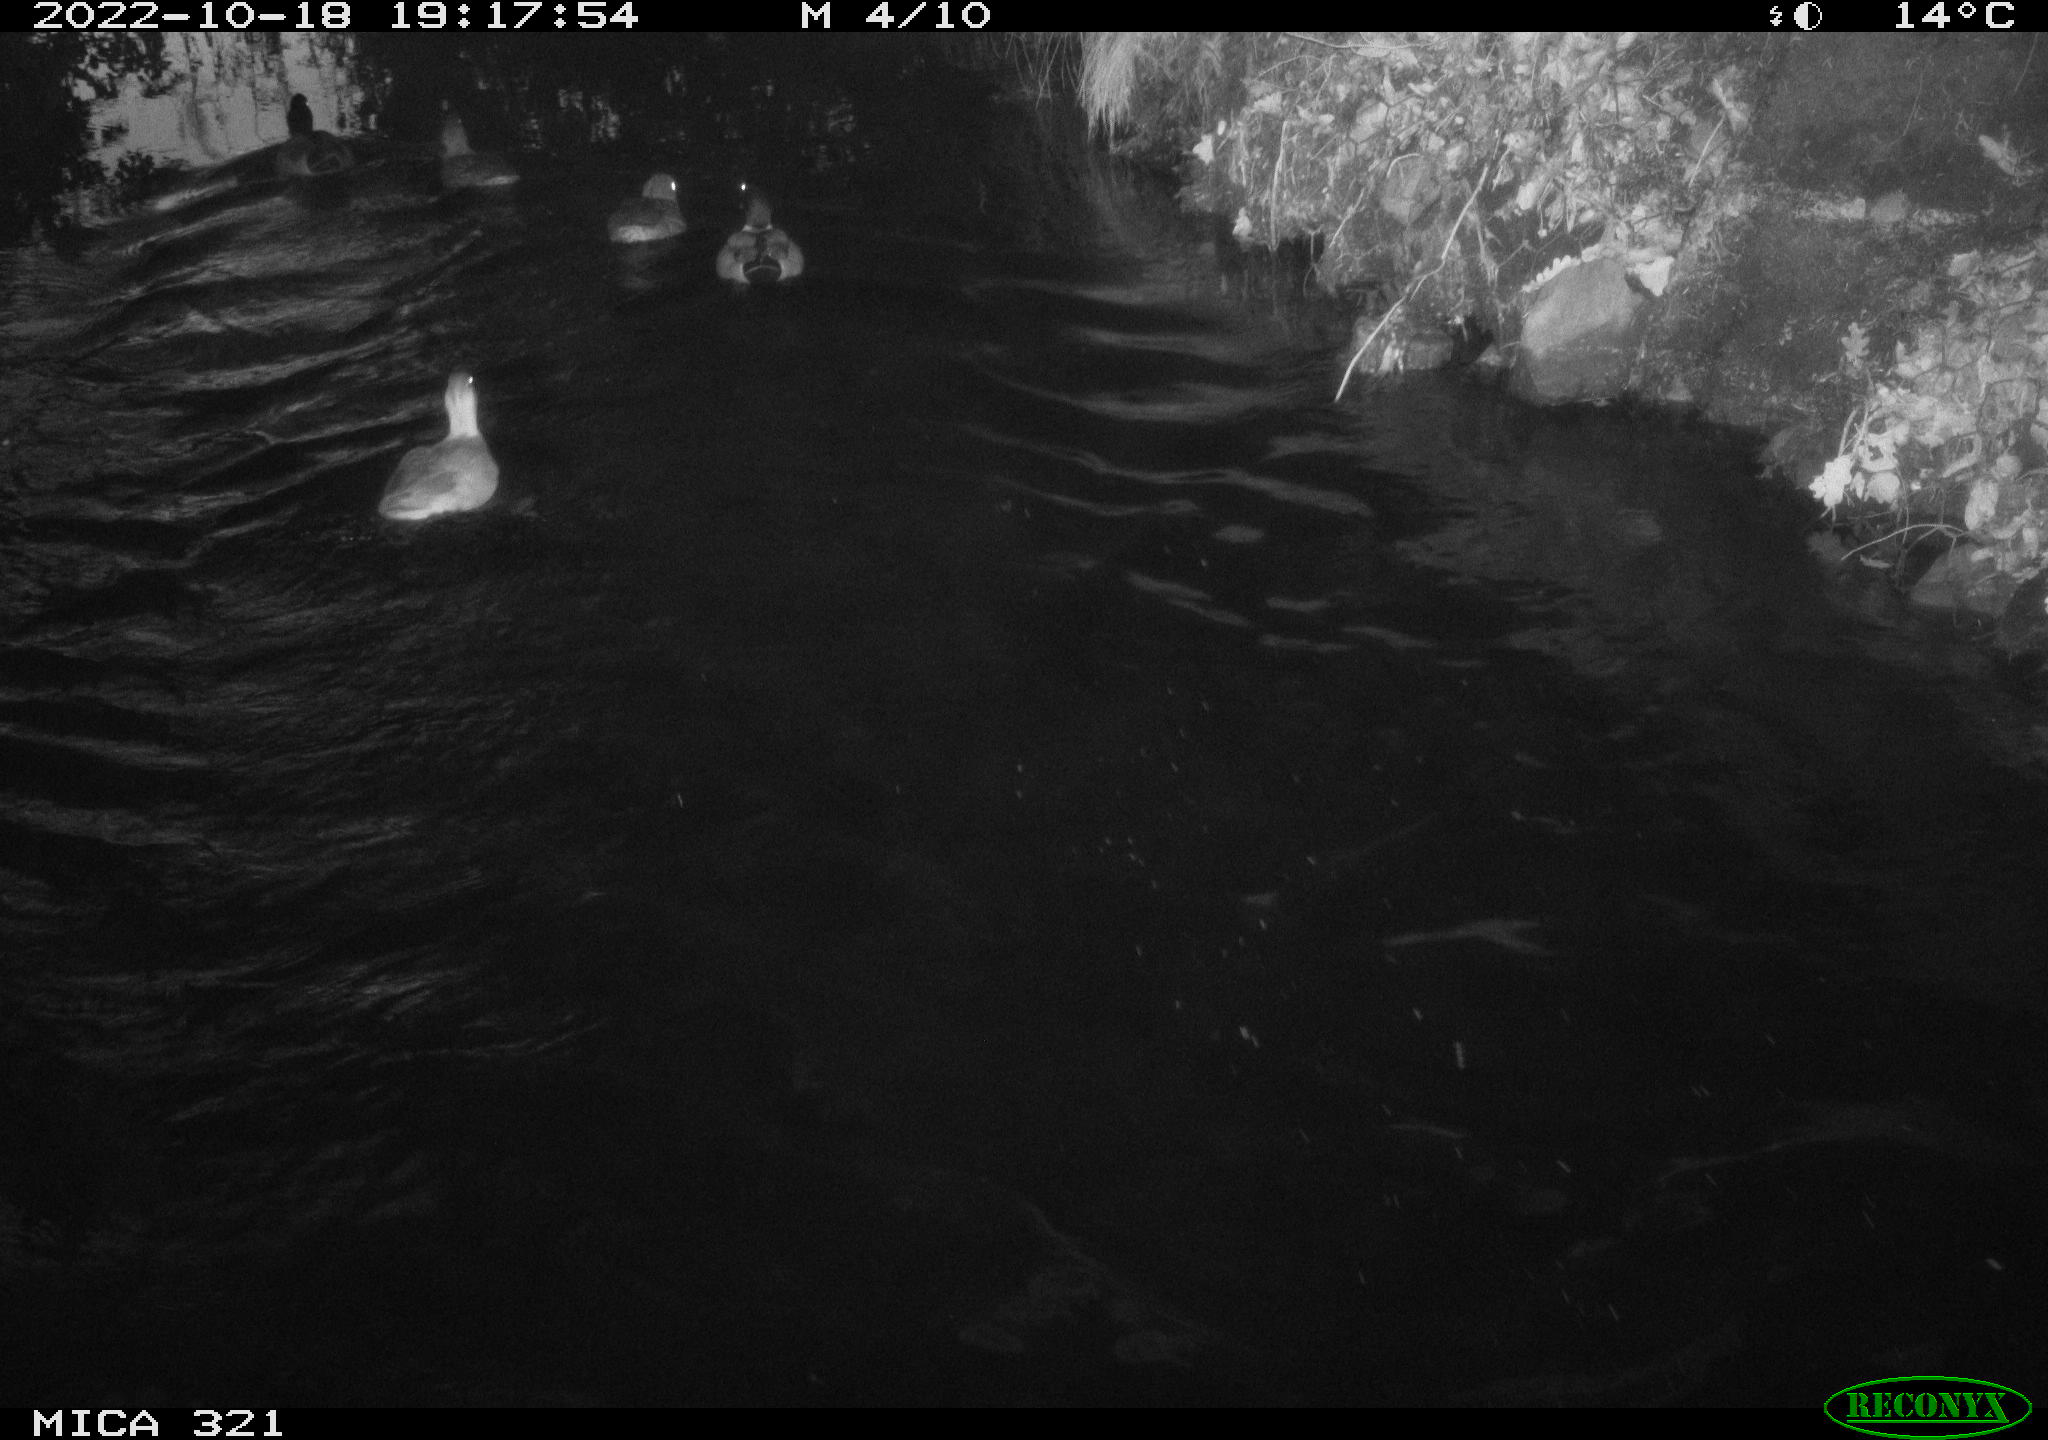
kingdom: Animalia
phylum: Chordata
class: Aves
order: Anseriformes
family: Anatidae
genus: Anas
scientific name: Anas
